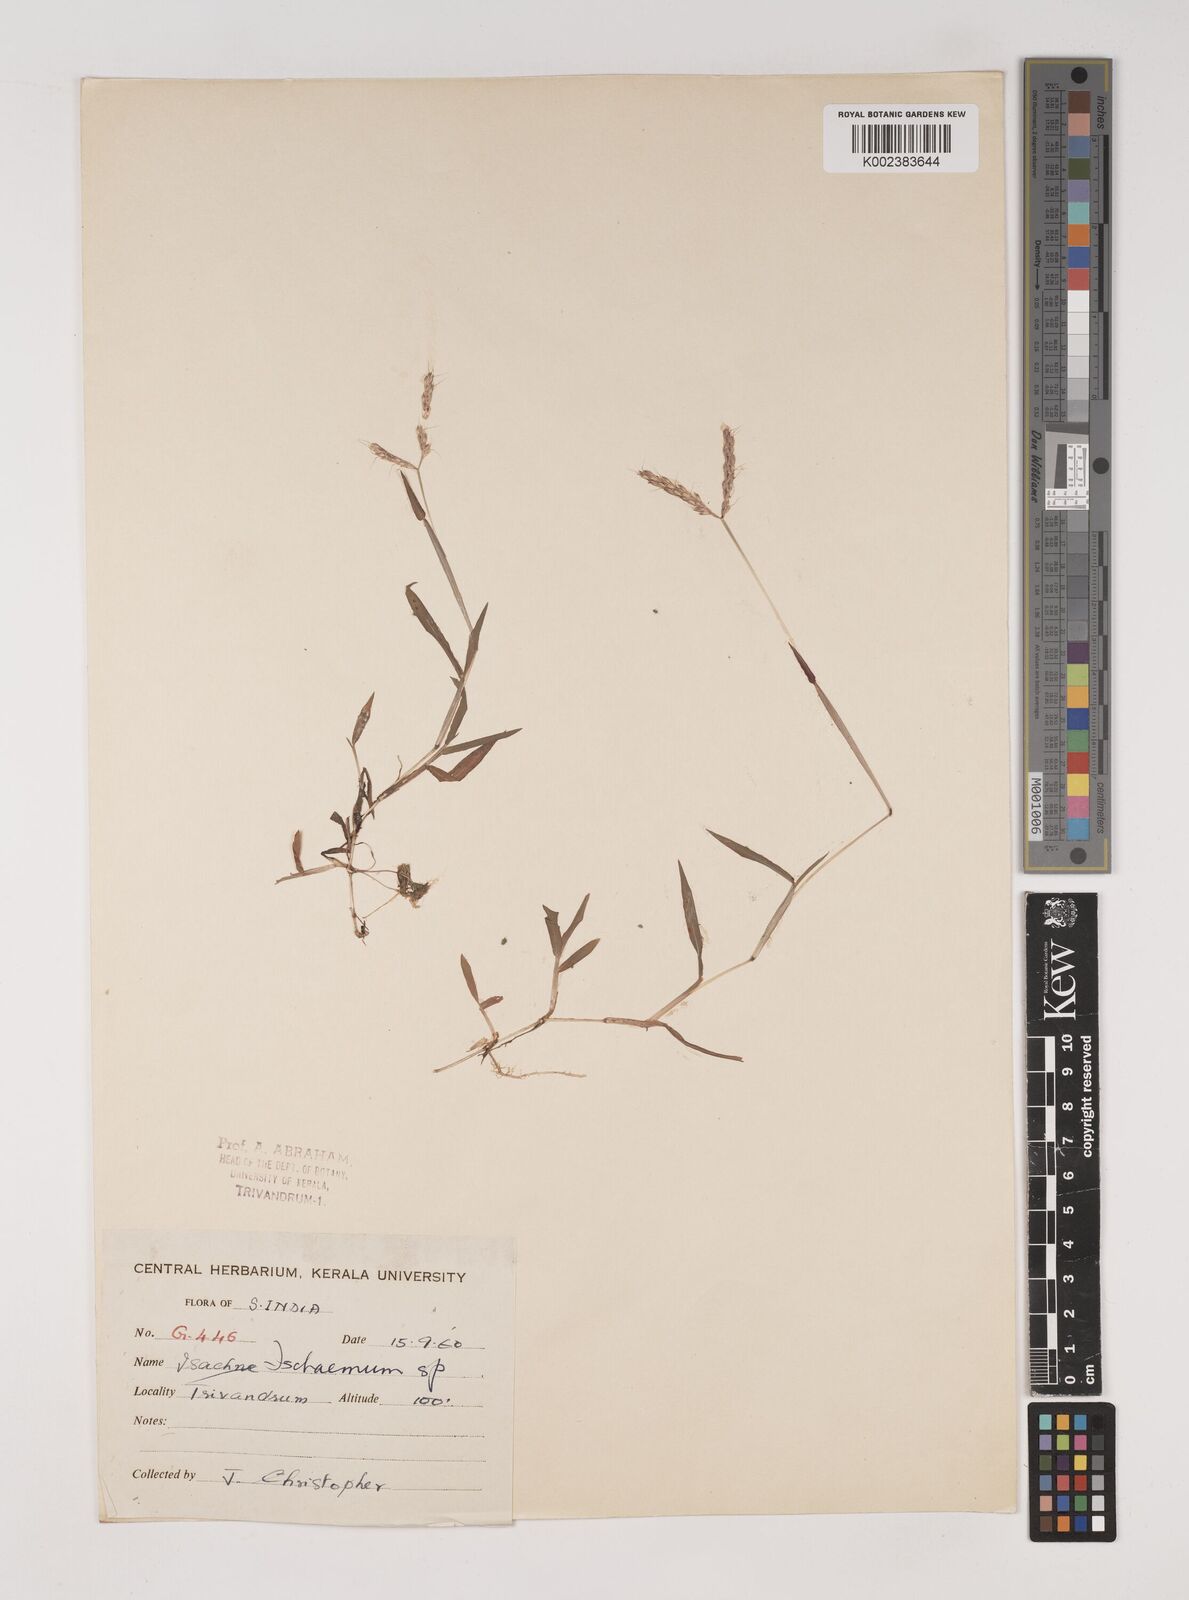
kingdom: Plantae
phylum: Tracheophyta
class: Liliopsida
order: Poales
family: Poaceae
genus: Ischaemum
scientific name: Ischaemum
